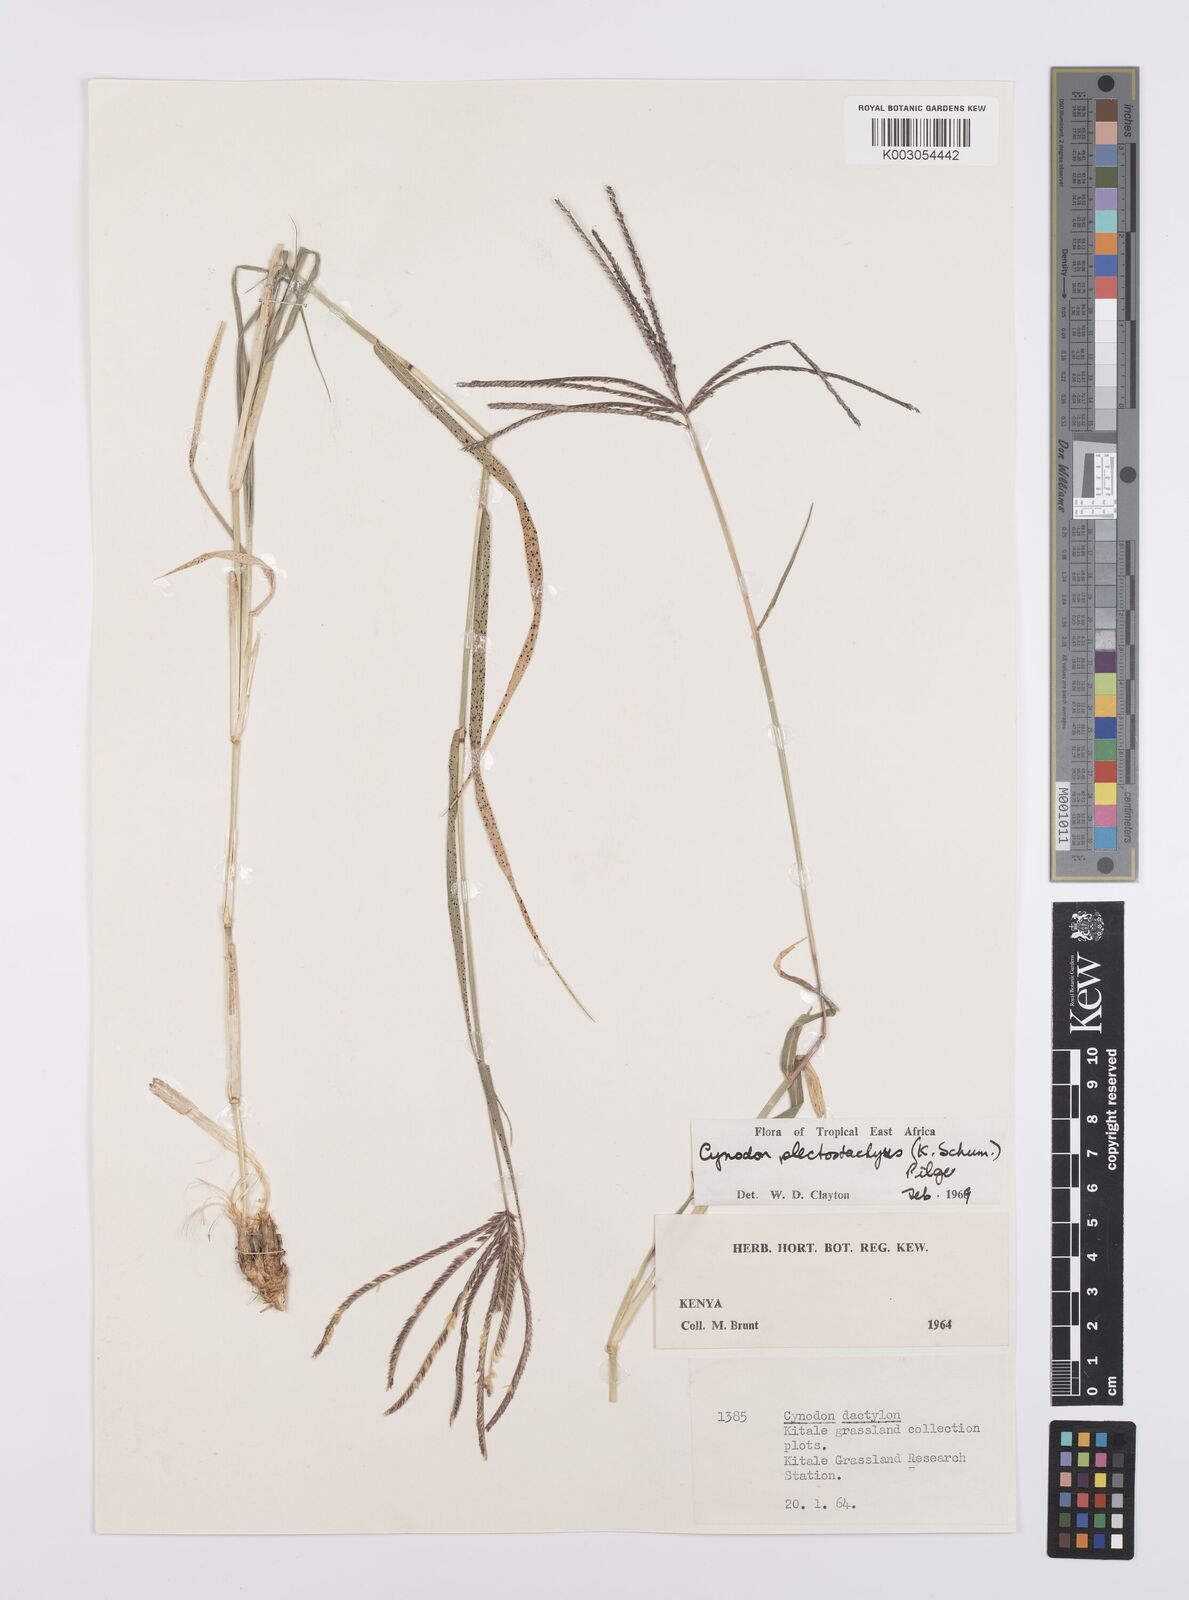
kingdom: Plantae
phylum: Tracheophyta
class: Liliopsida
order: Poales
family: Poaceae
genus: Cynodon
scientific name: Cynodon plectostachyus
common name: Stargrass
